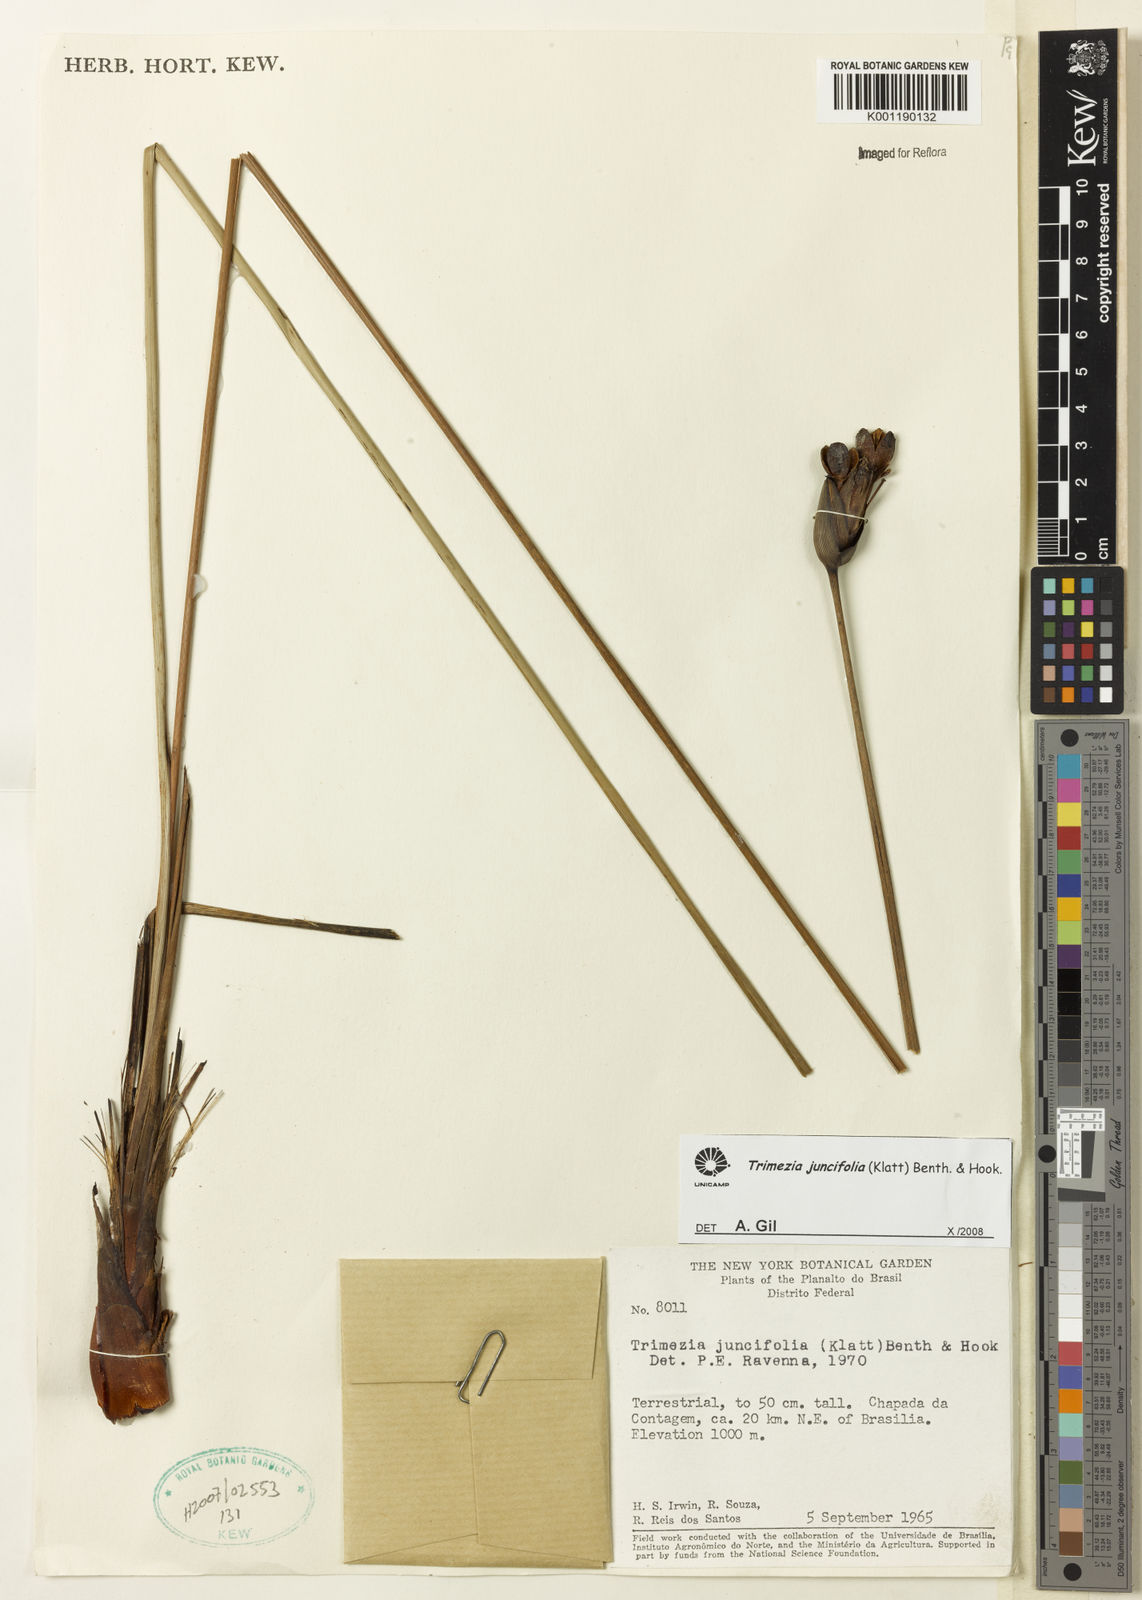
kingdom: Plantae
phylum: Tracheophyta
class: Liliopsida
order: Asparagales
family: Iridaceae
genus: Trimezia
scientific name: Trimezia juncifolia
